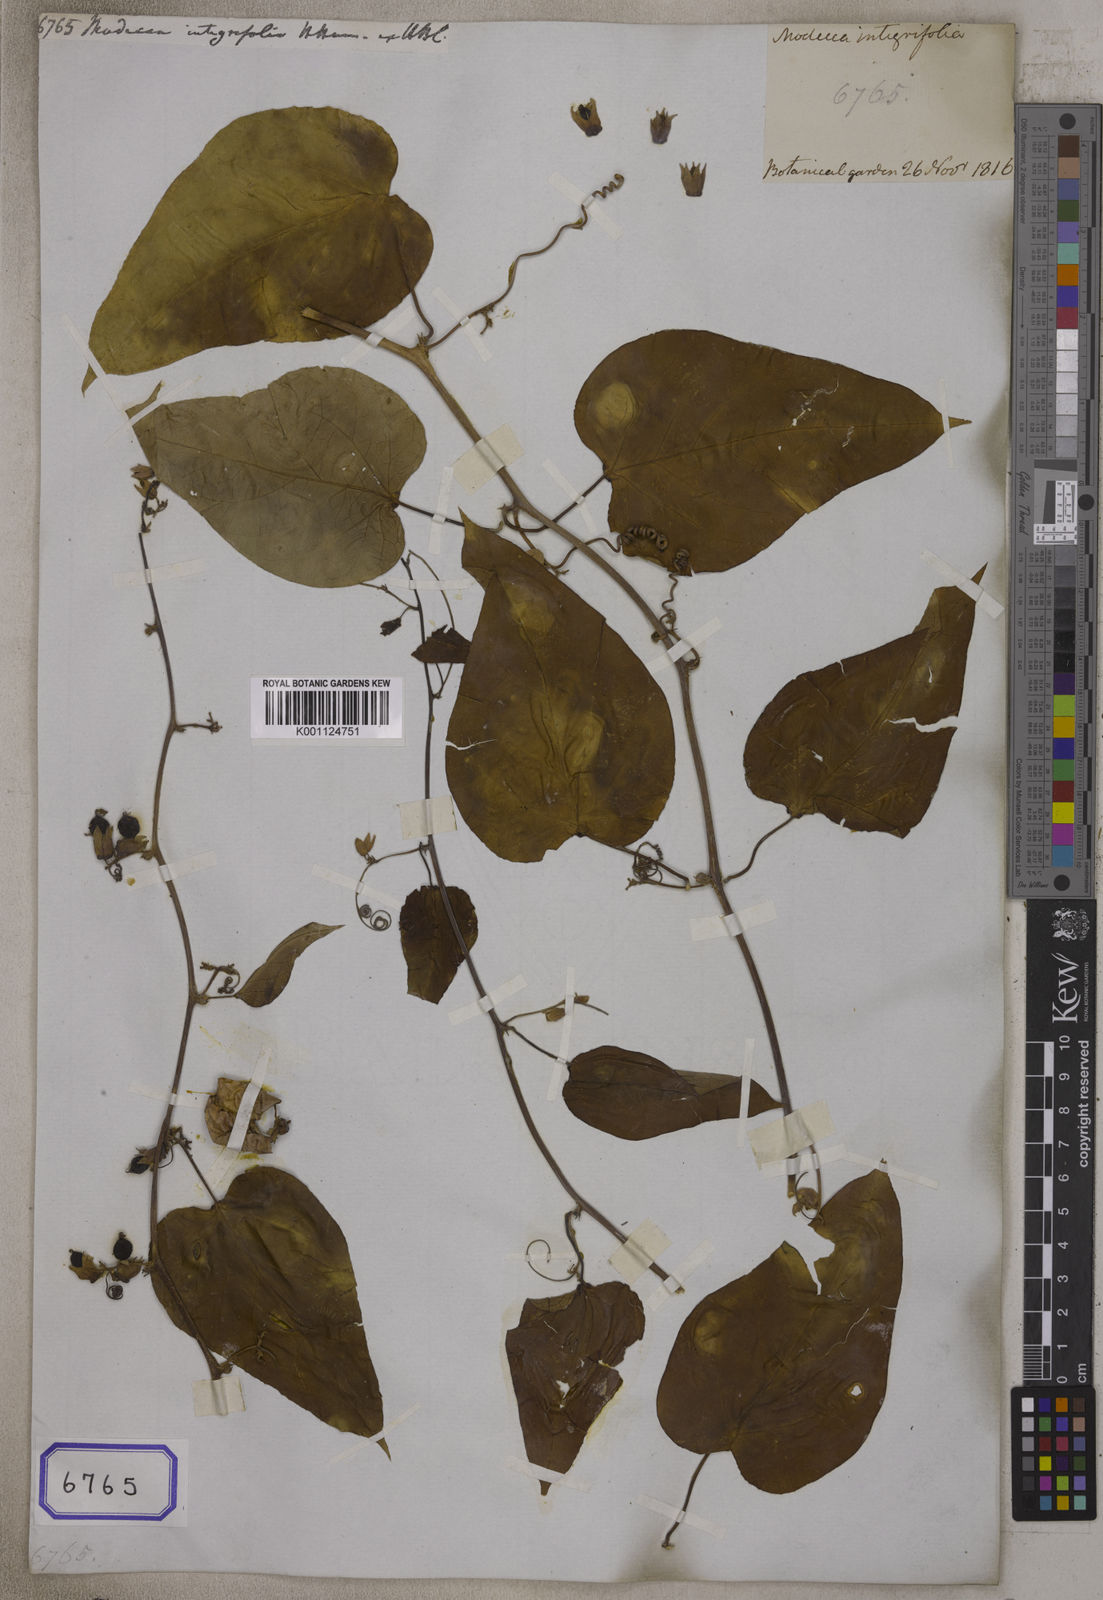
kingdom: Plantae
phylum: Tracheophyta
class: Magnoliopsida
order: Malpighiales
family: Passifloraceae
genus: Adenia
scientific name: Adenia
